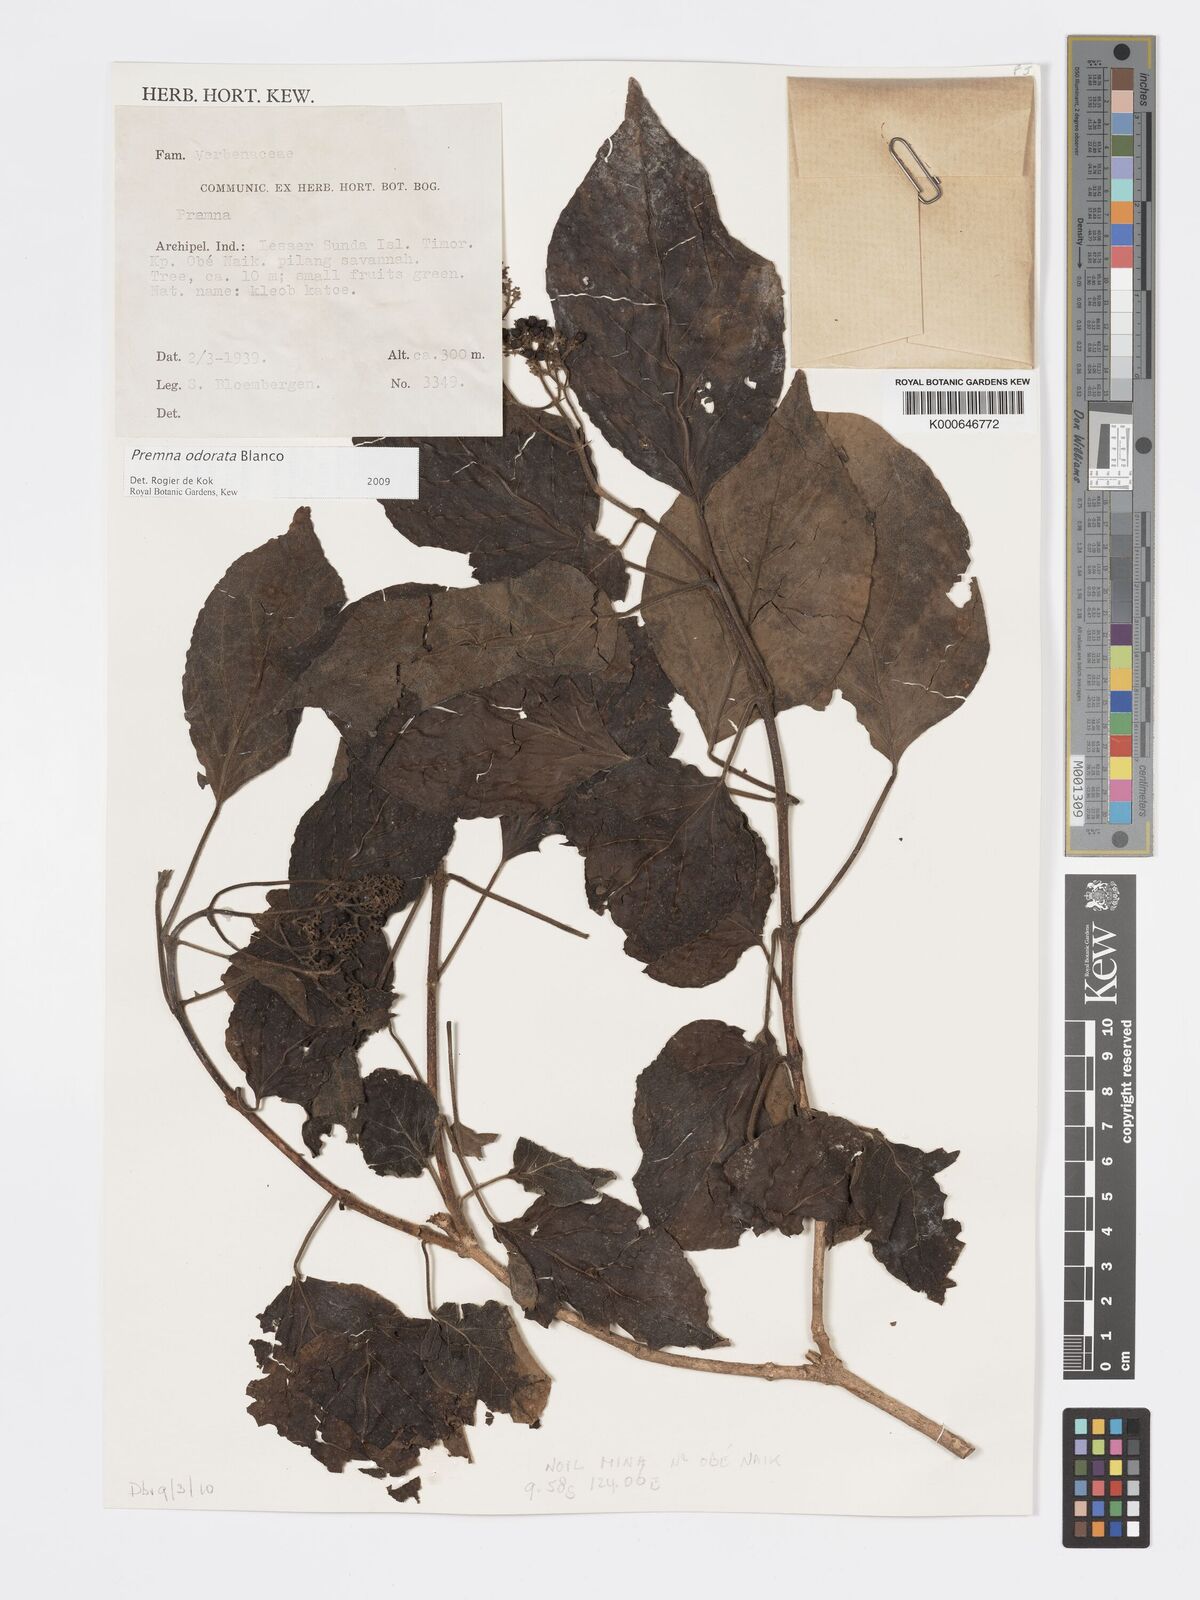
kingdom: Plantae
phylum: Tracheophyta
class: Magnoliopsida
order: Lamiales
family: Lamiaceae
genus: Premna
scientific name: Premna odorata
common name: Fragrant premna
